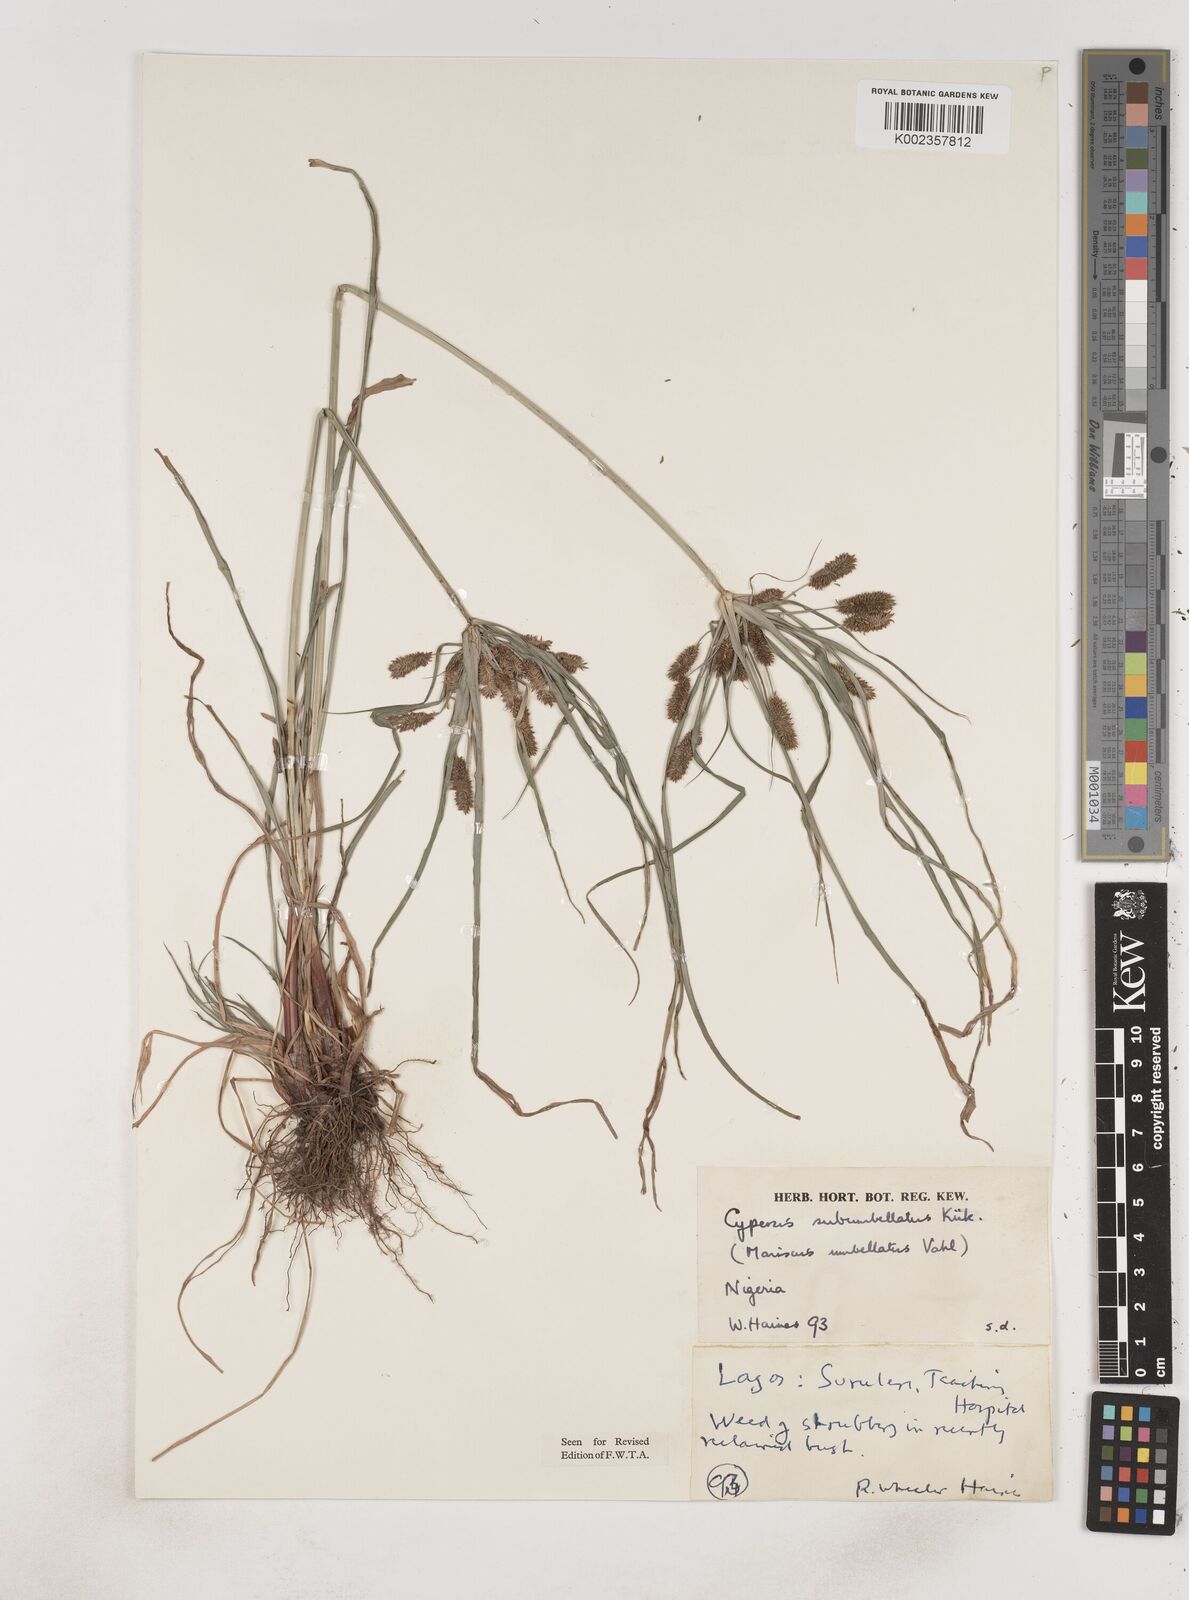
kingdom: Plantae
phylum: Tracheophyta
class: Liliopsida
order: Poales
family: Cyperaceae
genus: Cyperus
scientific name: Cyperus sublimis
